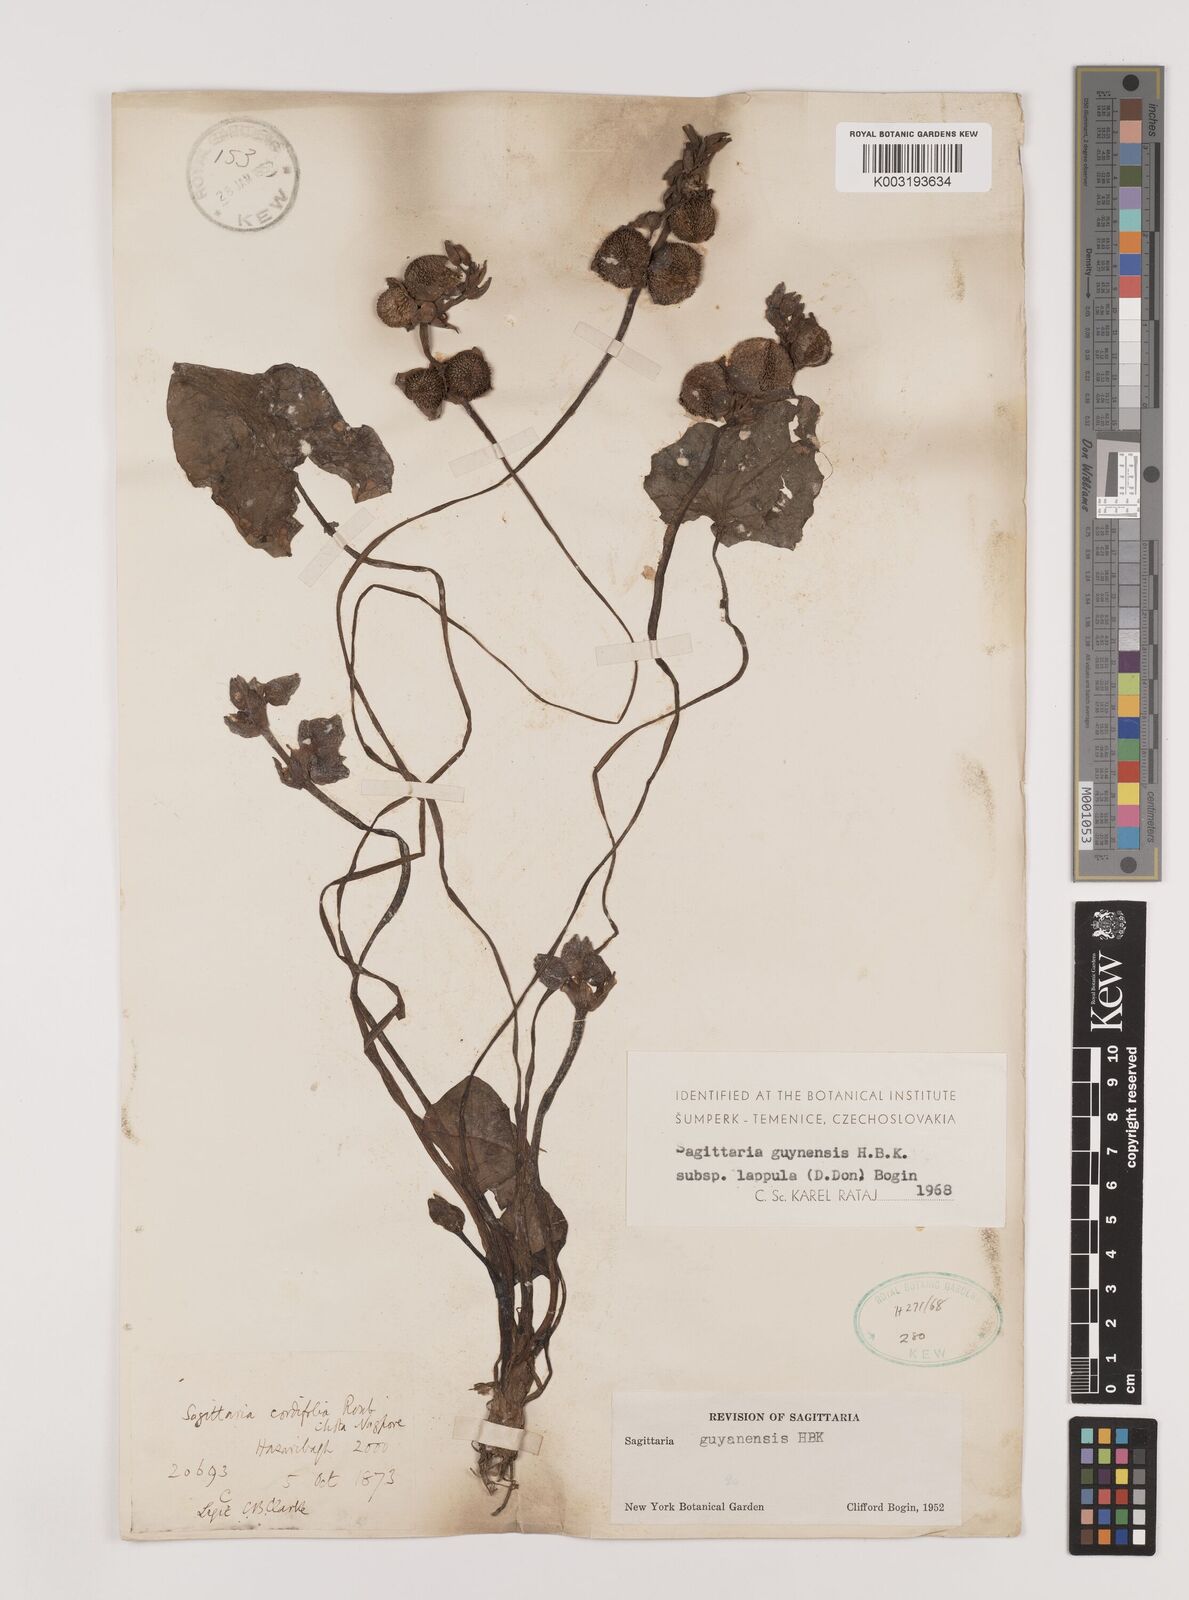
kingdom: Plantae
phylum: Tracheophyta
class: Liliopsida
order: Alismatales
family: Alismataceae
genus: Sagittaria
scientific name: Sagittaria guayanensis
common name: Guyanese arrowhead
